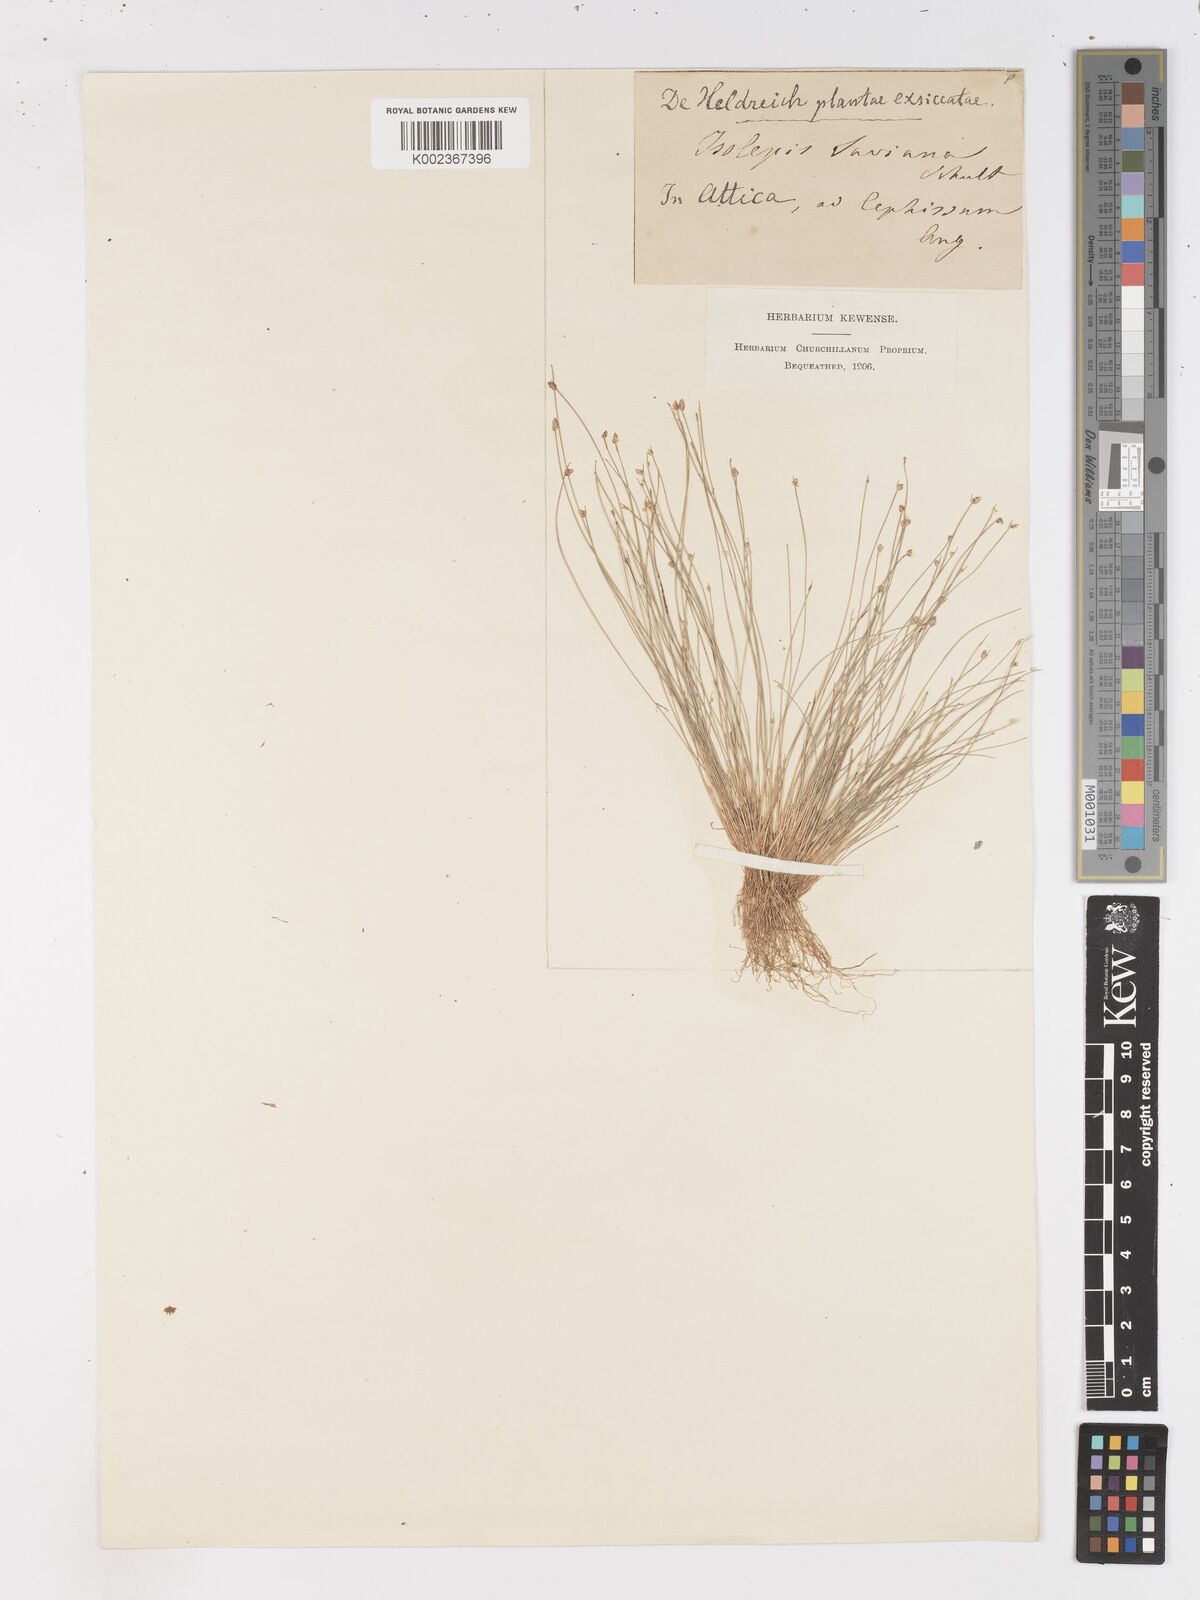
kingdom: Plantae
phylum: Tracheophyta
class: Liliopsida
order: Poales
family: Cyperaceae
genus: Isolepis
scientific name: Isolepis cernua
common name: Slender club-rush
